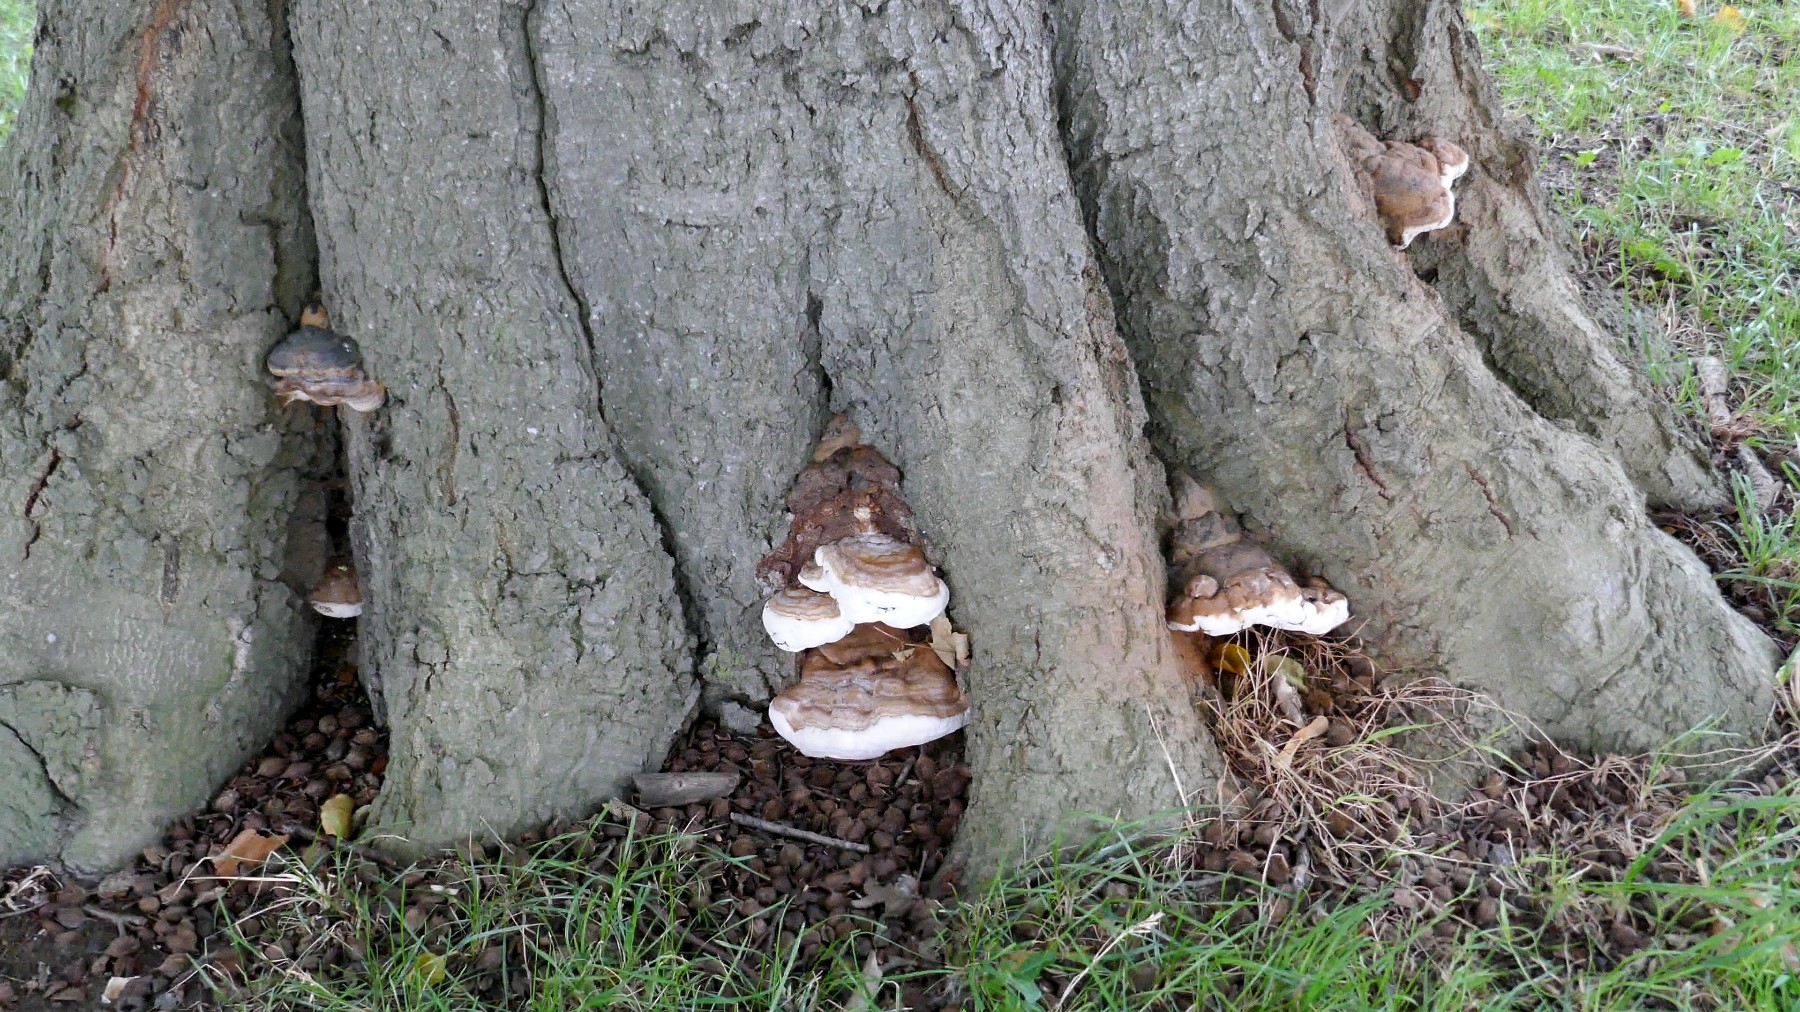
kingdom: Fungi
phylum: Basidiomycota
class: Agaricomycetes
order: Polyporales
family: Polyporaceae
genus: Ganoderma
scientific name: Ganoderma pfeifferi
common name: kobberrød lakporesvamp
